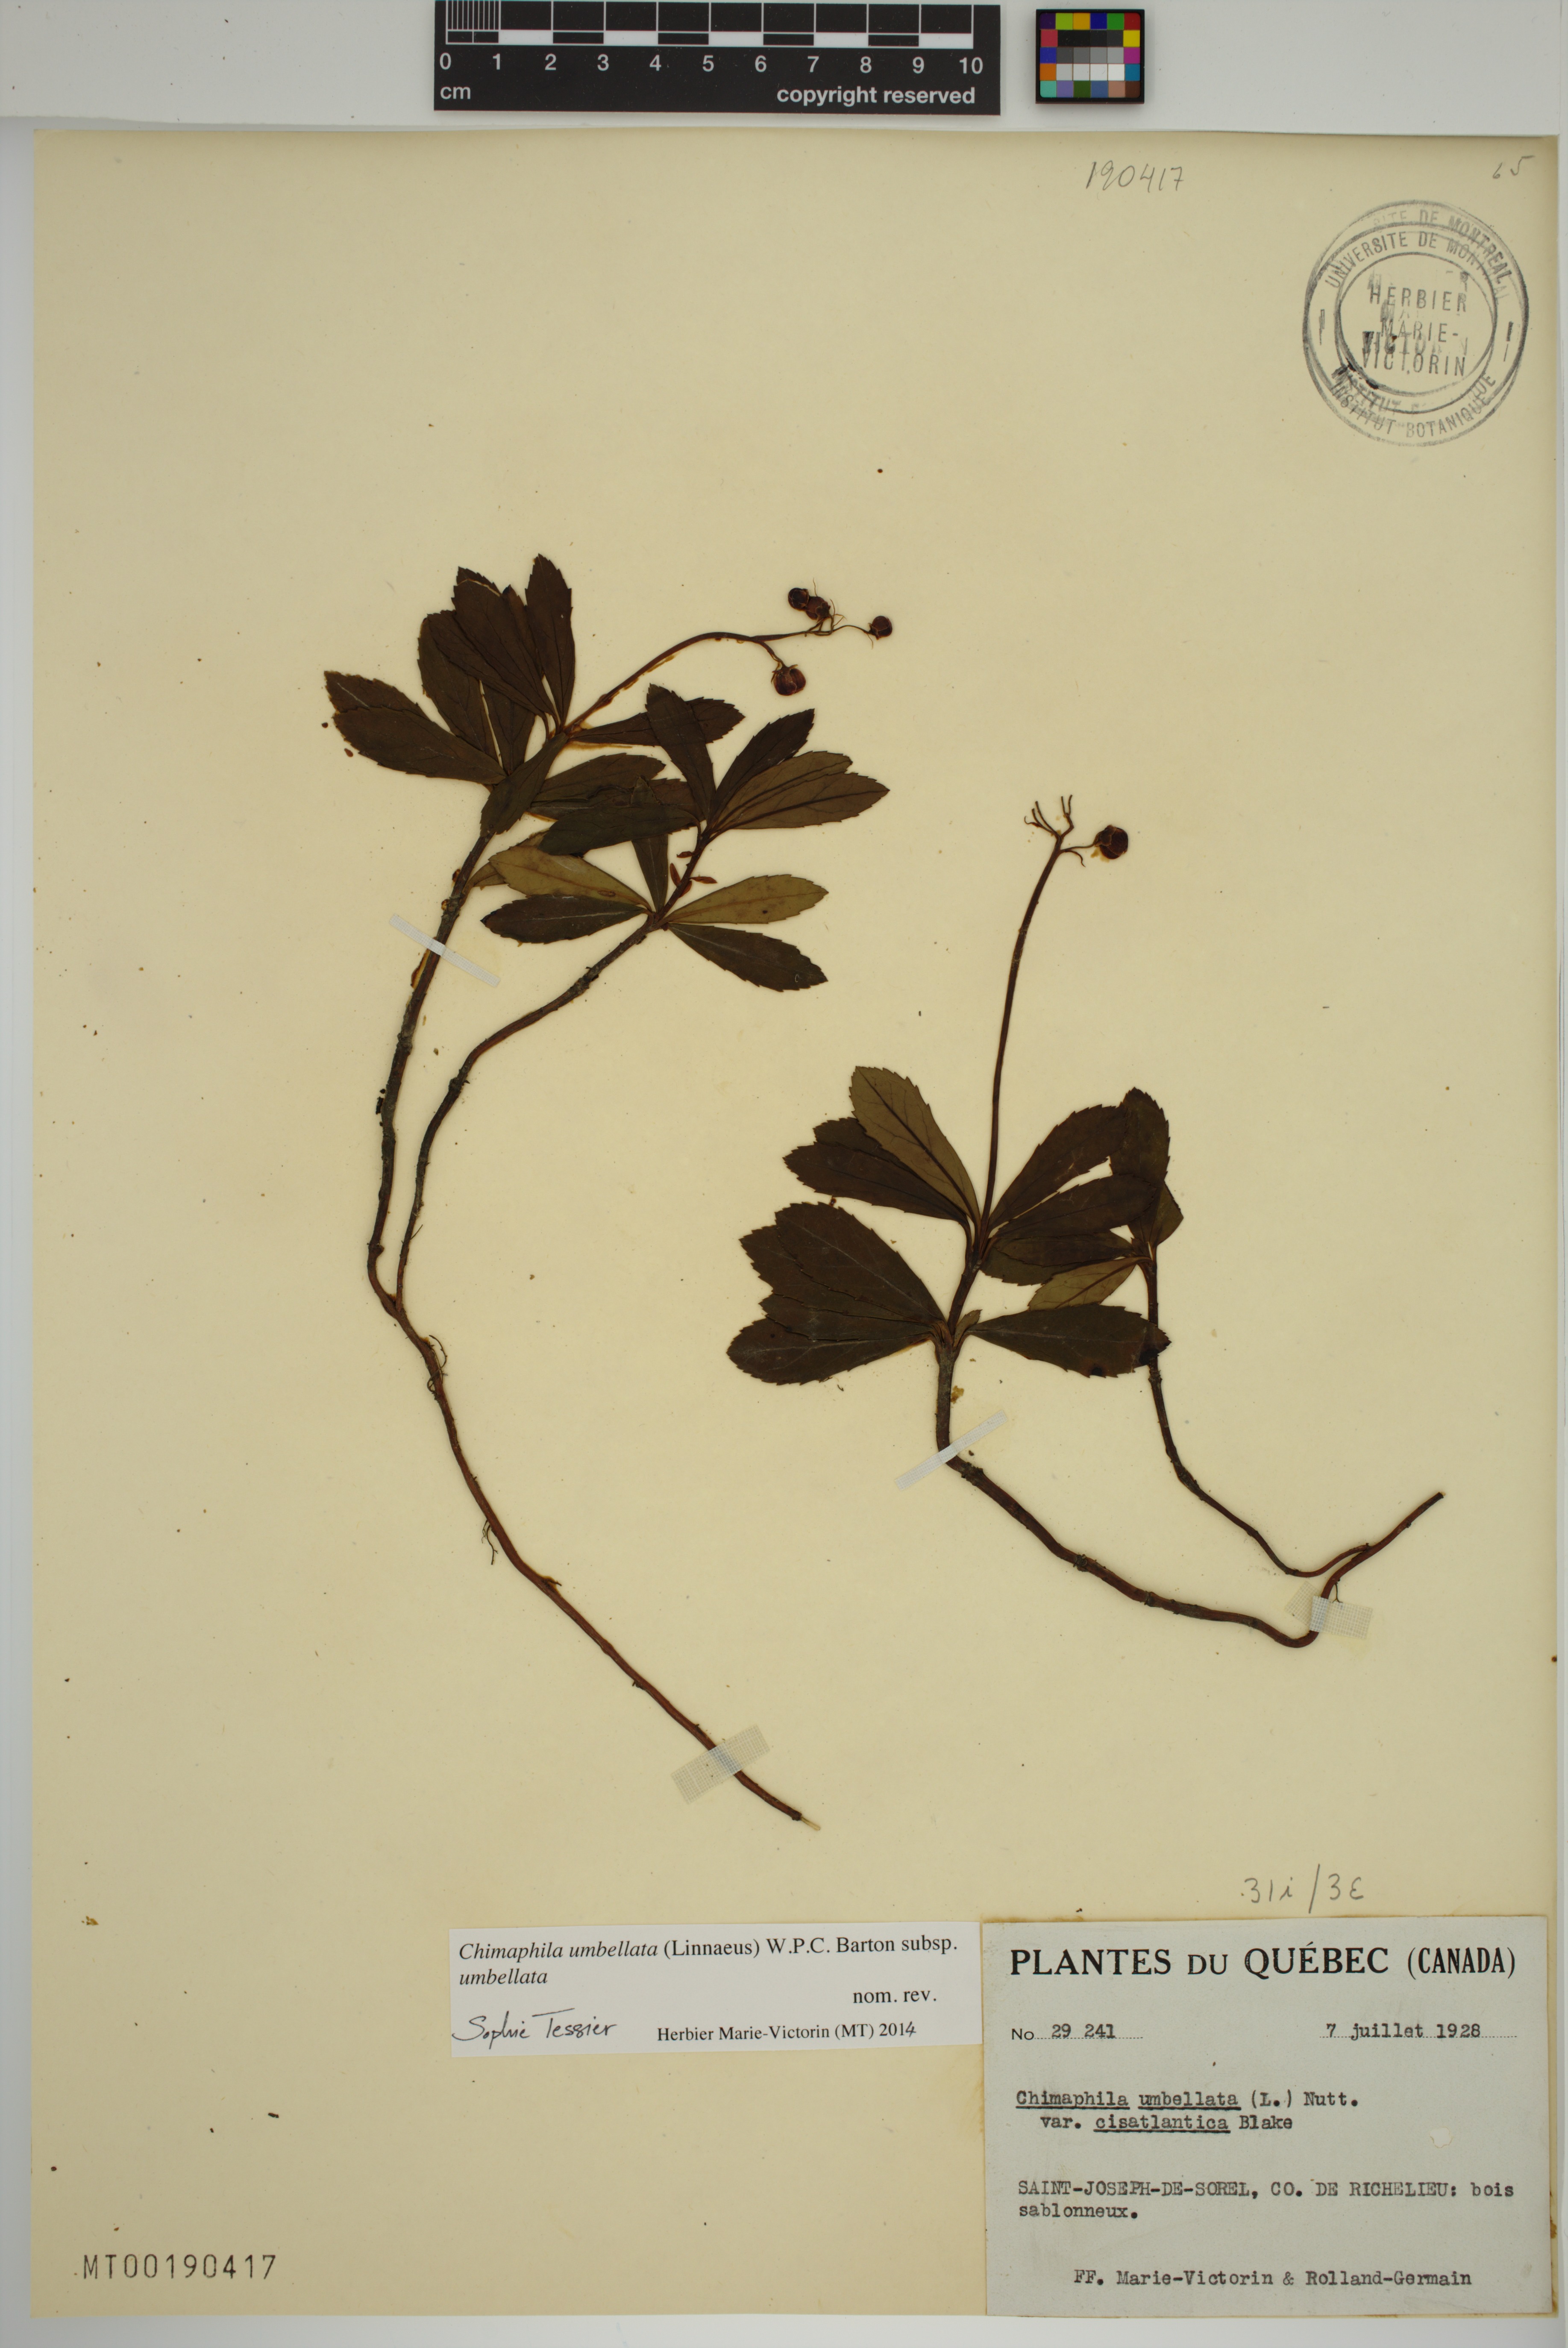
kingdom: Plantae
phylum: Tracheophyta
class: Magnoliopsida
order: Ericales
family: Ericaceae
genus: Chimaphila
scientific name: Chimaphila umbellata
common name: Pipsissewa
